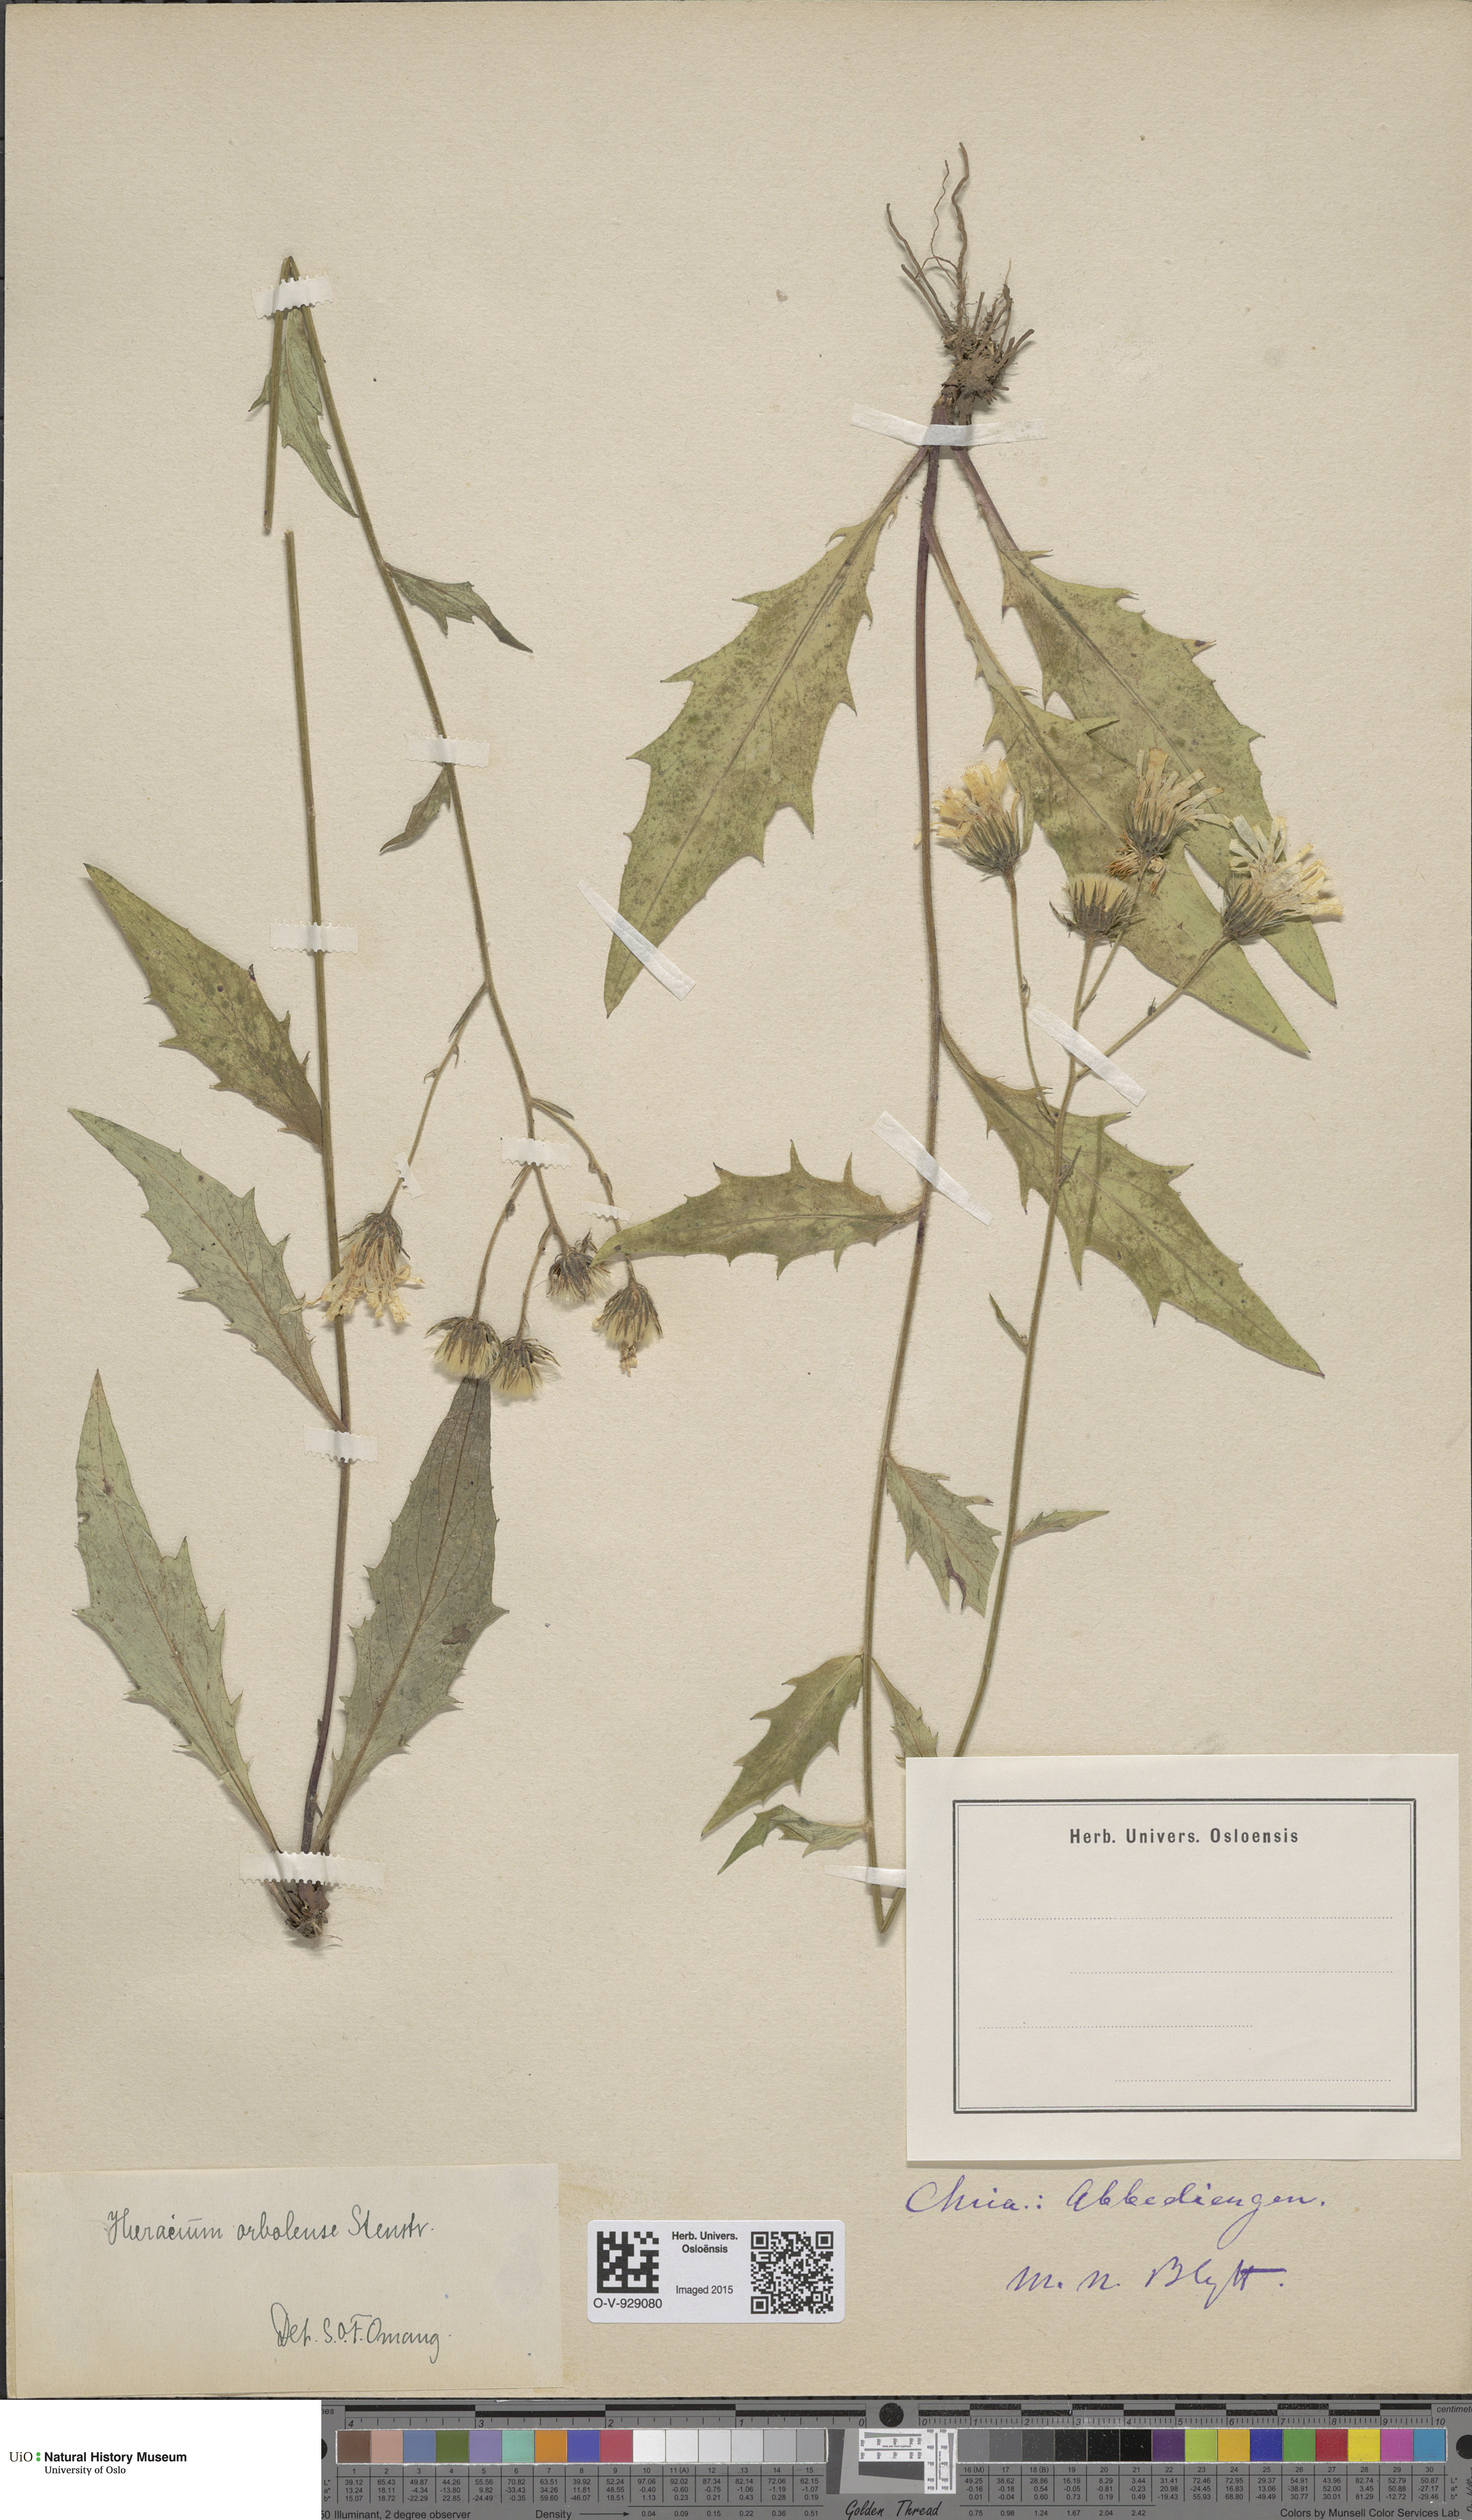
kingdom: Plantae
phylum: Tracheophyta
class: Magnoliopsida
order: Asterales
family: Asteraceae
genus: Hieracium
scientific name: Hieracium orbolense
